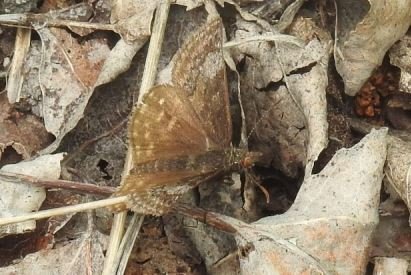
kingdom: Animalia
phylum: Arthropoda
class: Insecta
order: Lepidoptera
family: Hesperiidae
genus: Erynnis
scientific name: Erynnis icelus
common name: Dreamy Duskywing
